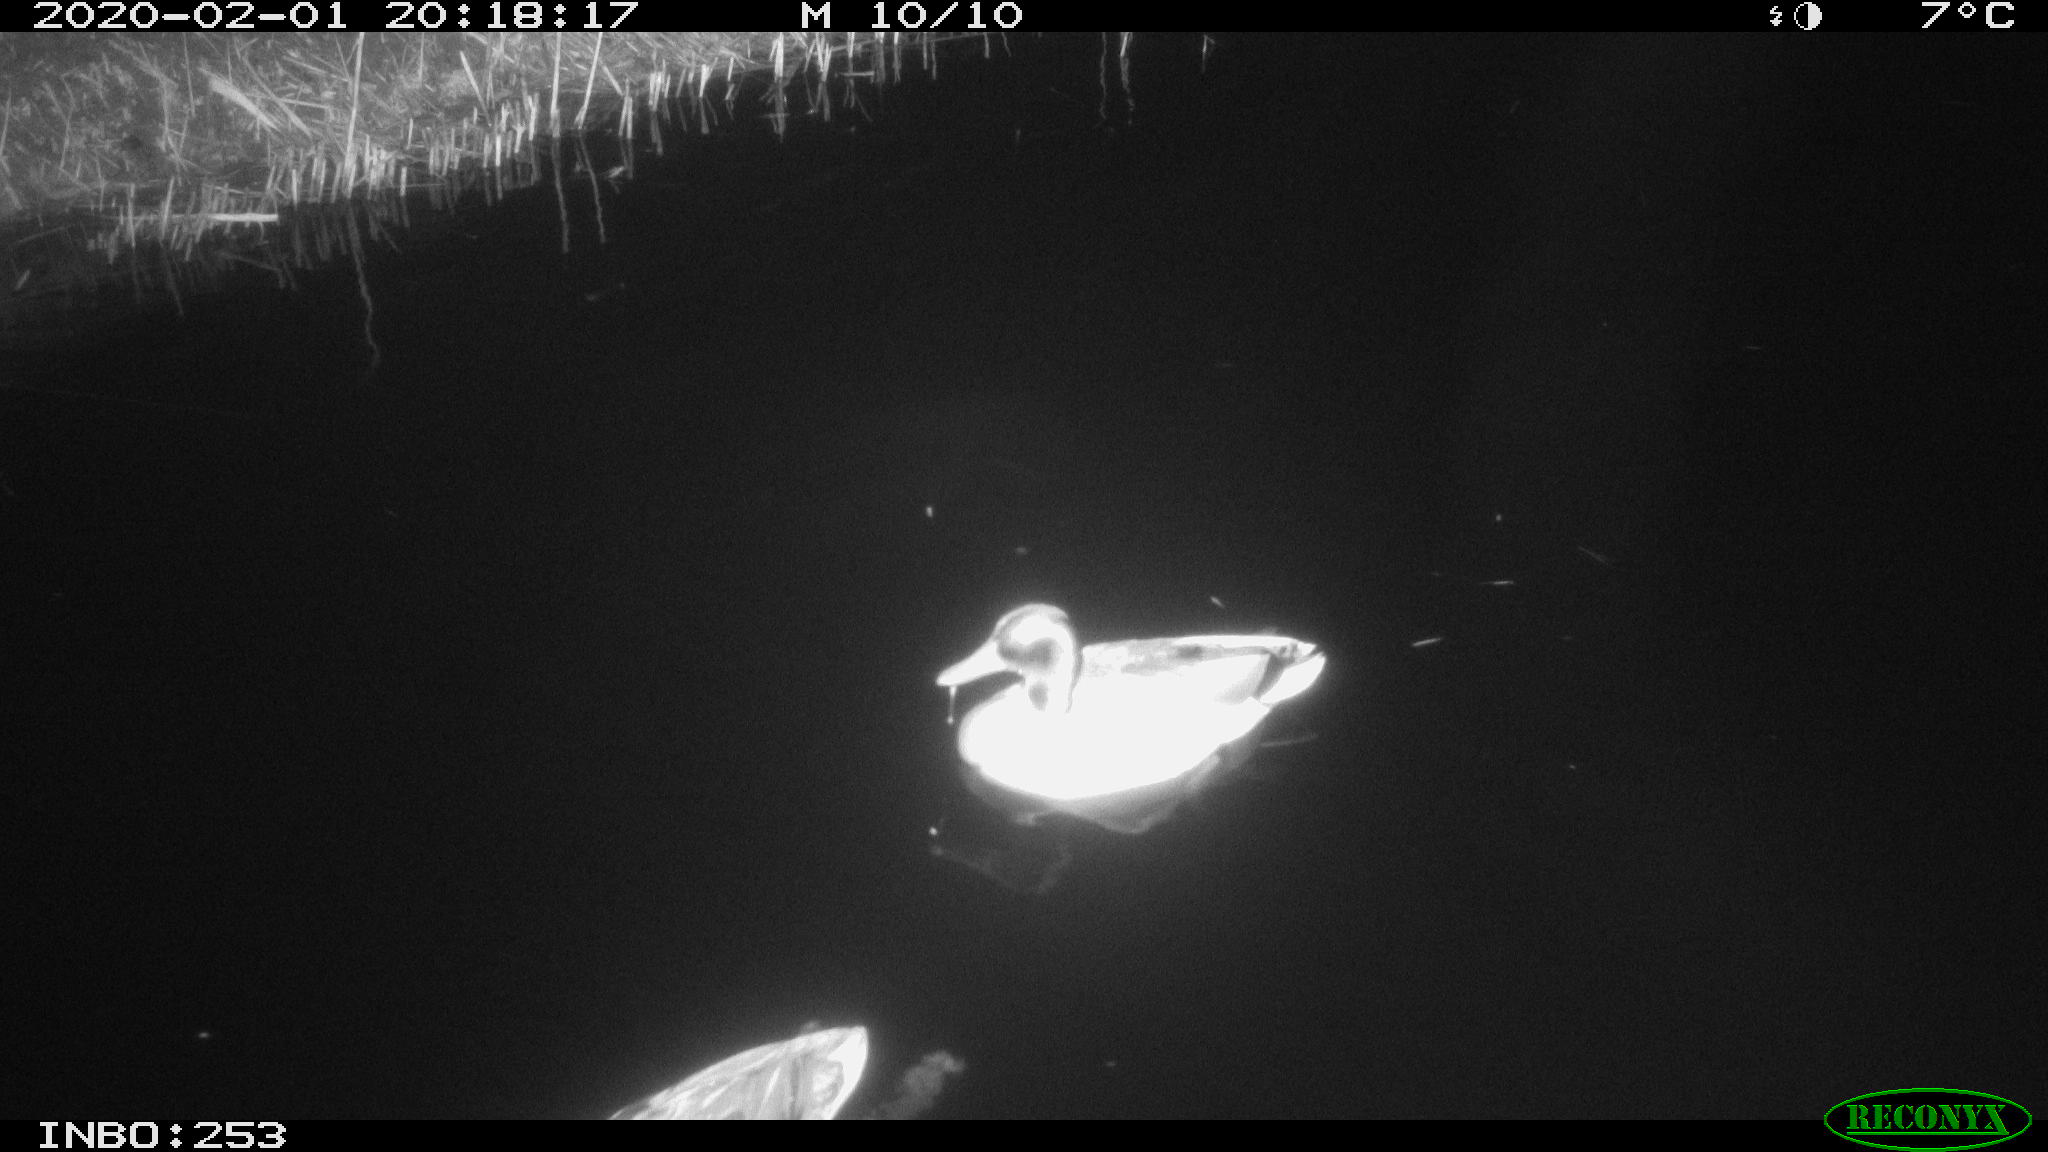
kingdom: Animalia
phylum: Chordata
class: Aves
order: Anseriformes
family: Anatidae
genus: Anas
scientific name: Anas platyrhynchos
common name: Mallard
